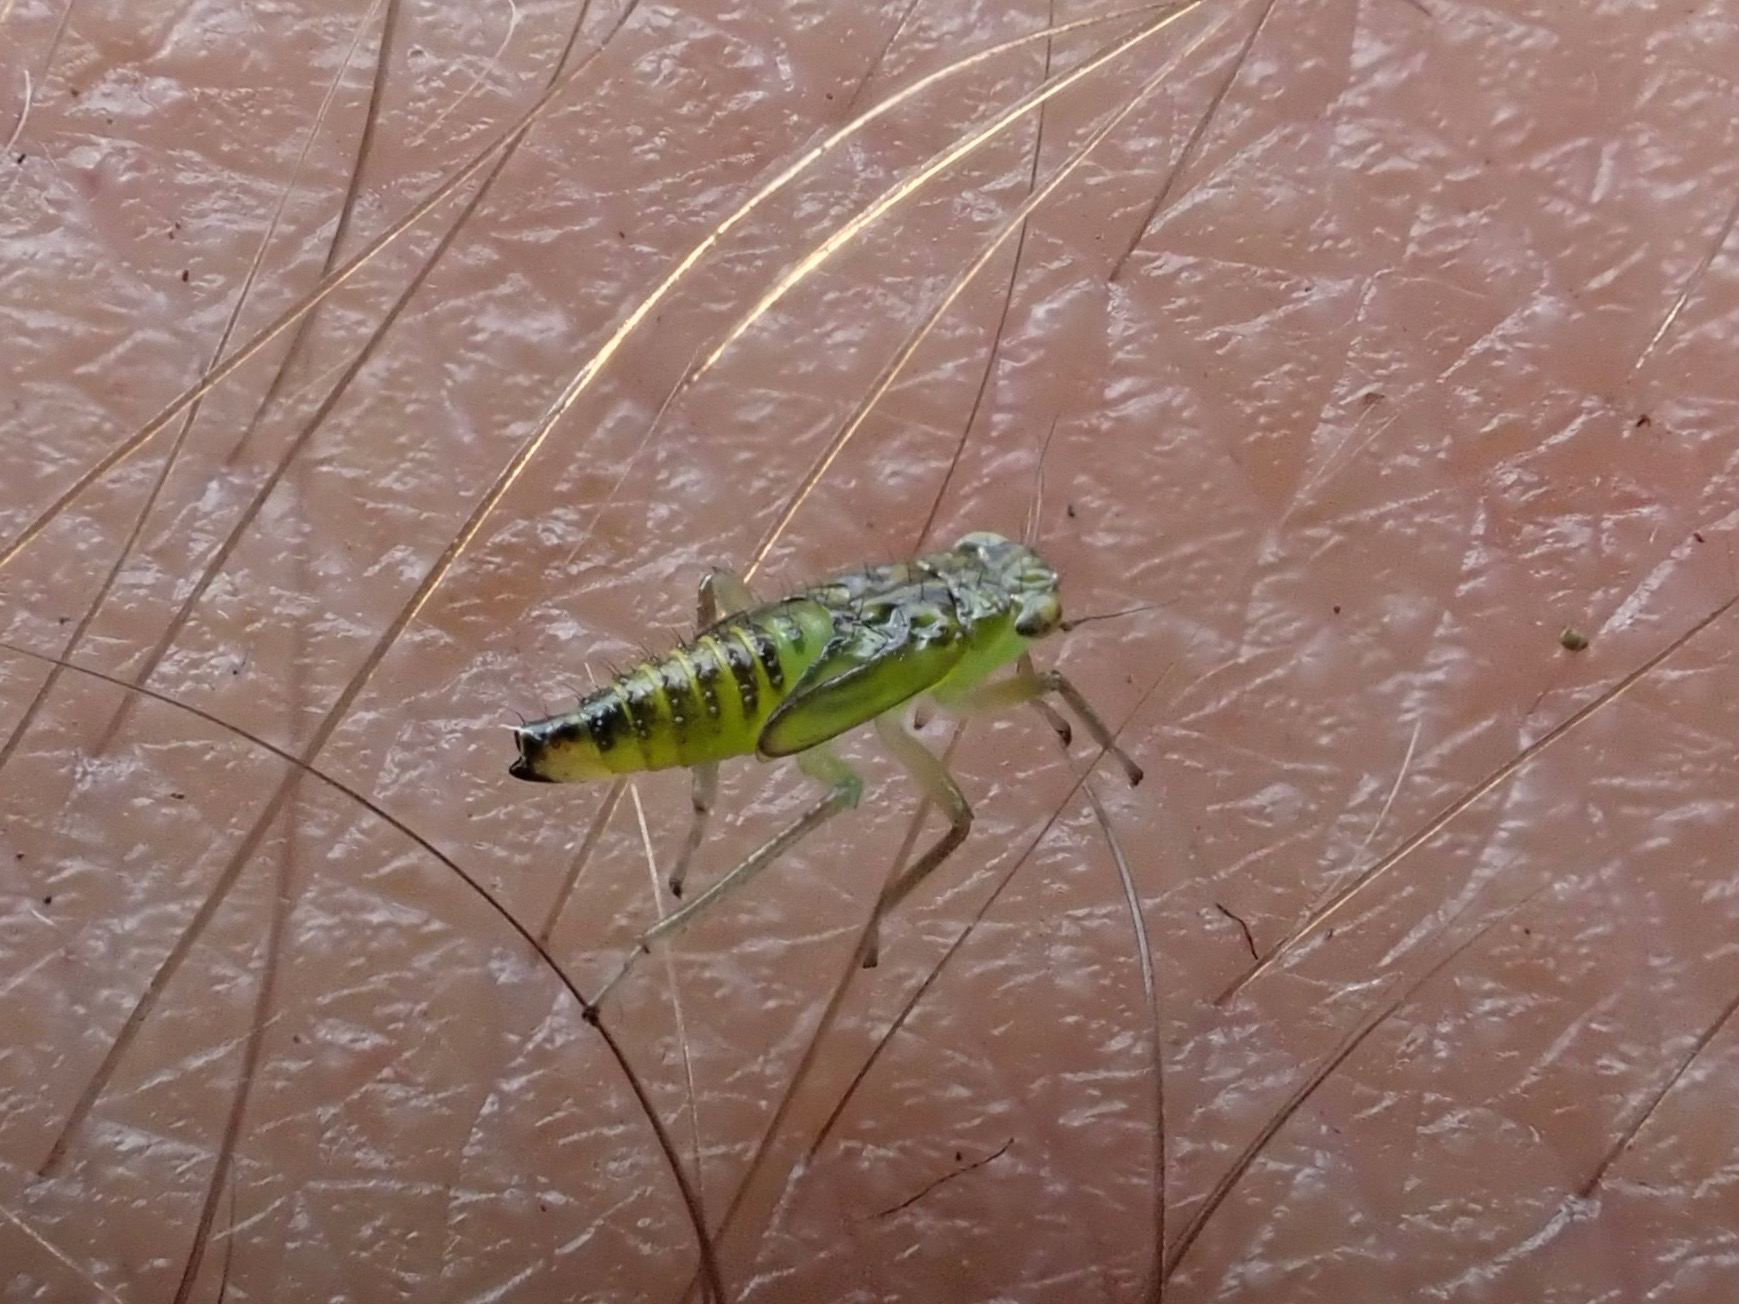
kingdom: Animalia
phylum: Arthropoda
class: Insecta
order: Hemiptera
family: Cicadellidae
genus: Kybos
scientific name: Kybos
